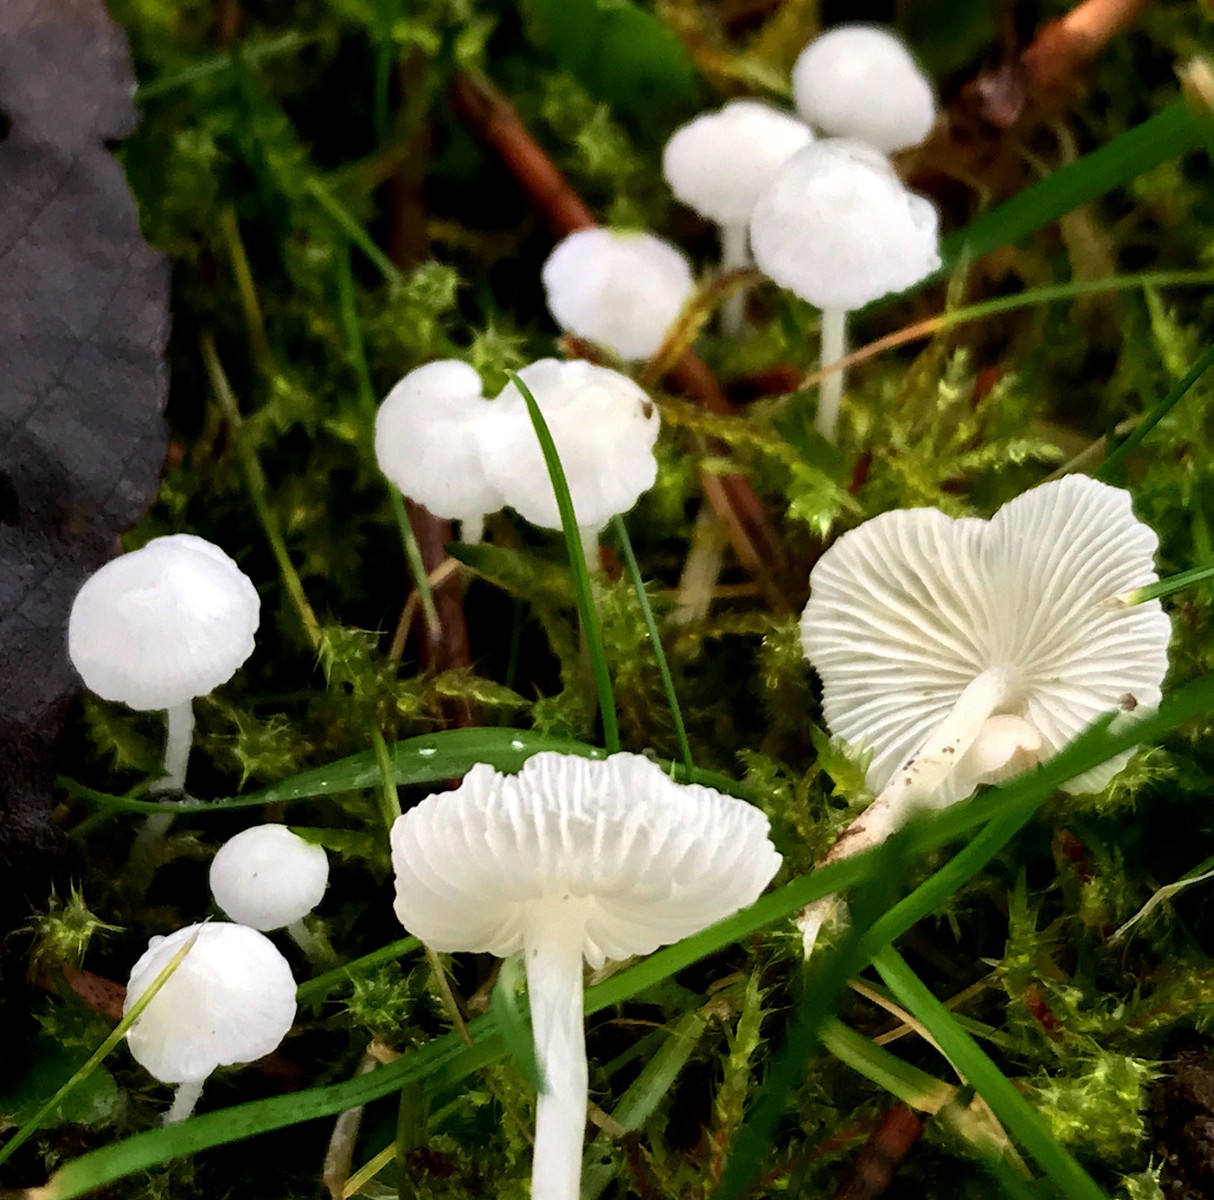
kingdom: Fungi
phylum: Basidiomycota
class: Agaricomycetes
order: Agaricales
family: Mycenaceae
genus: Hemimycena
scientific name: Hemimycena
